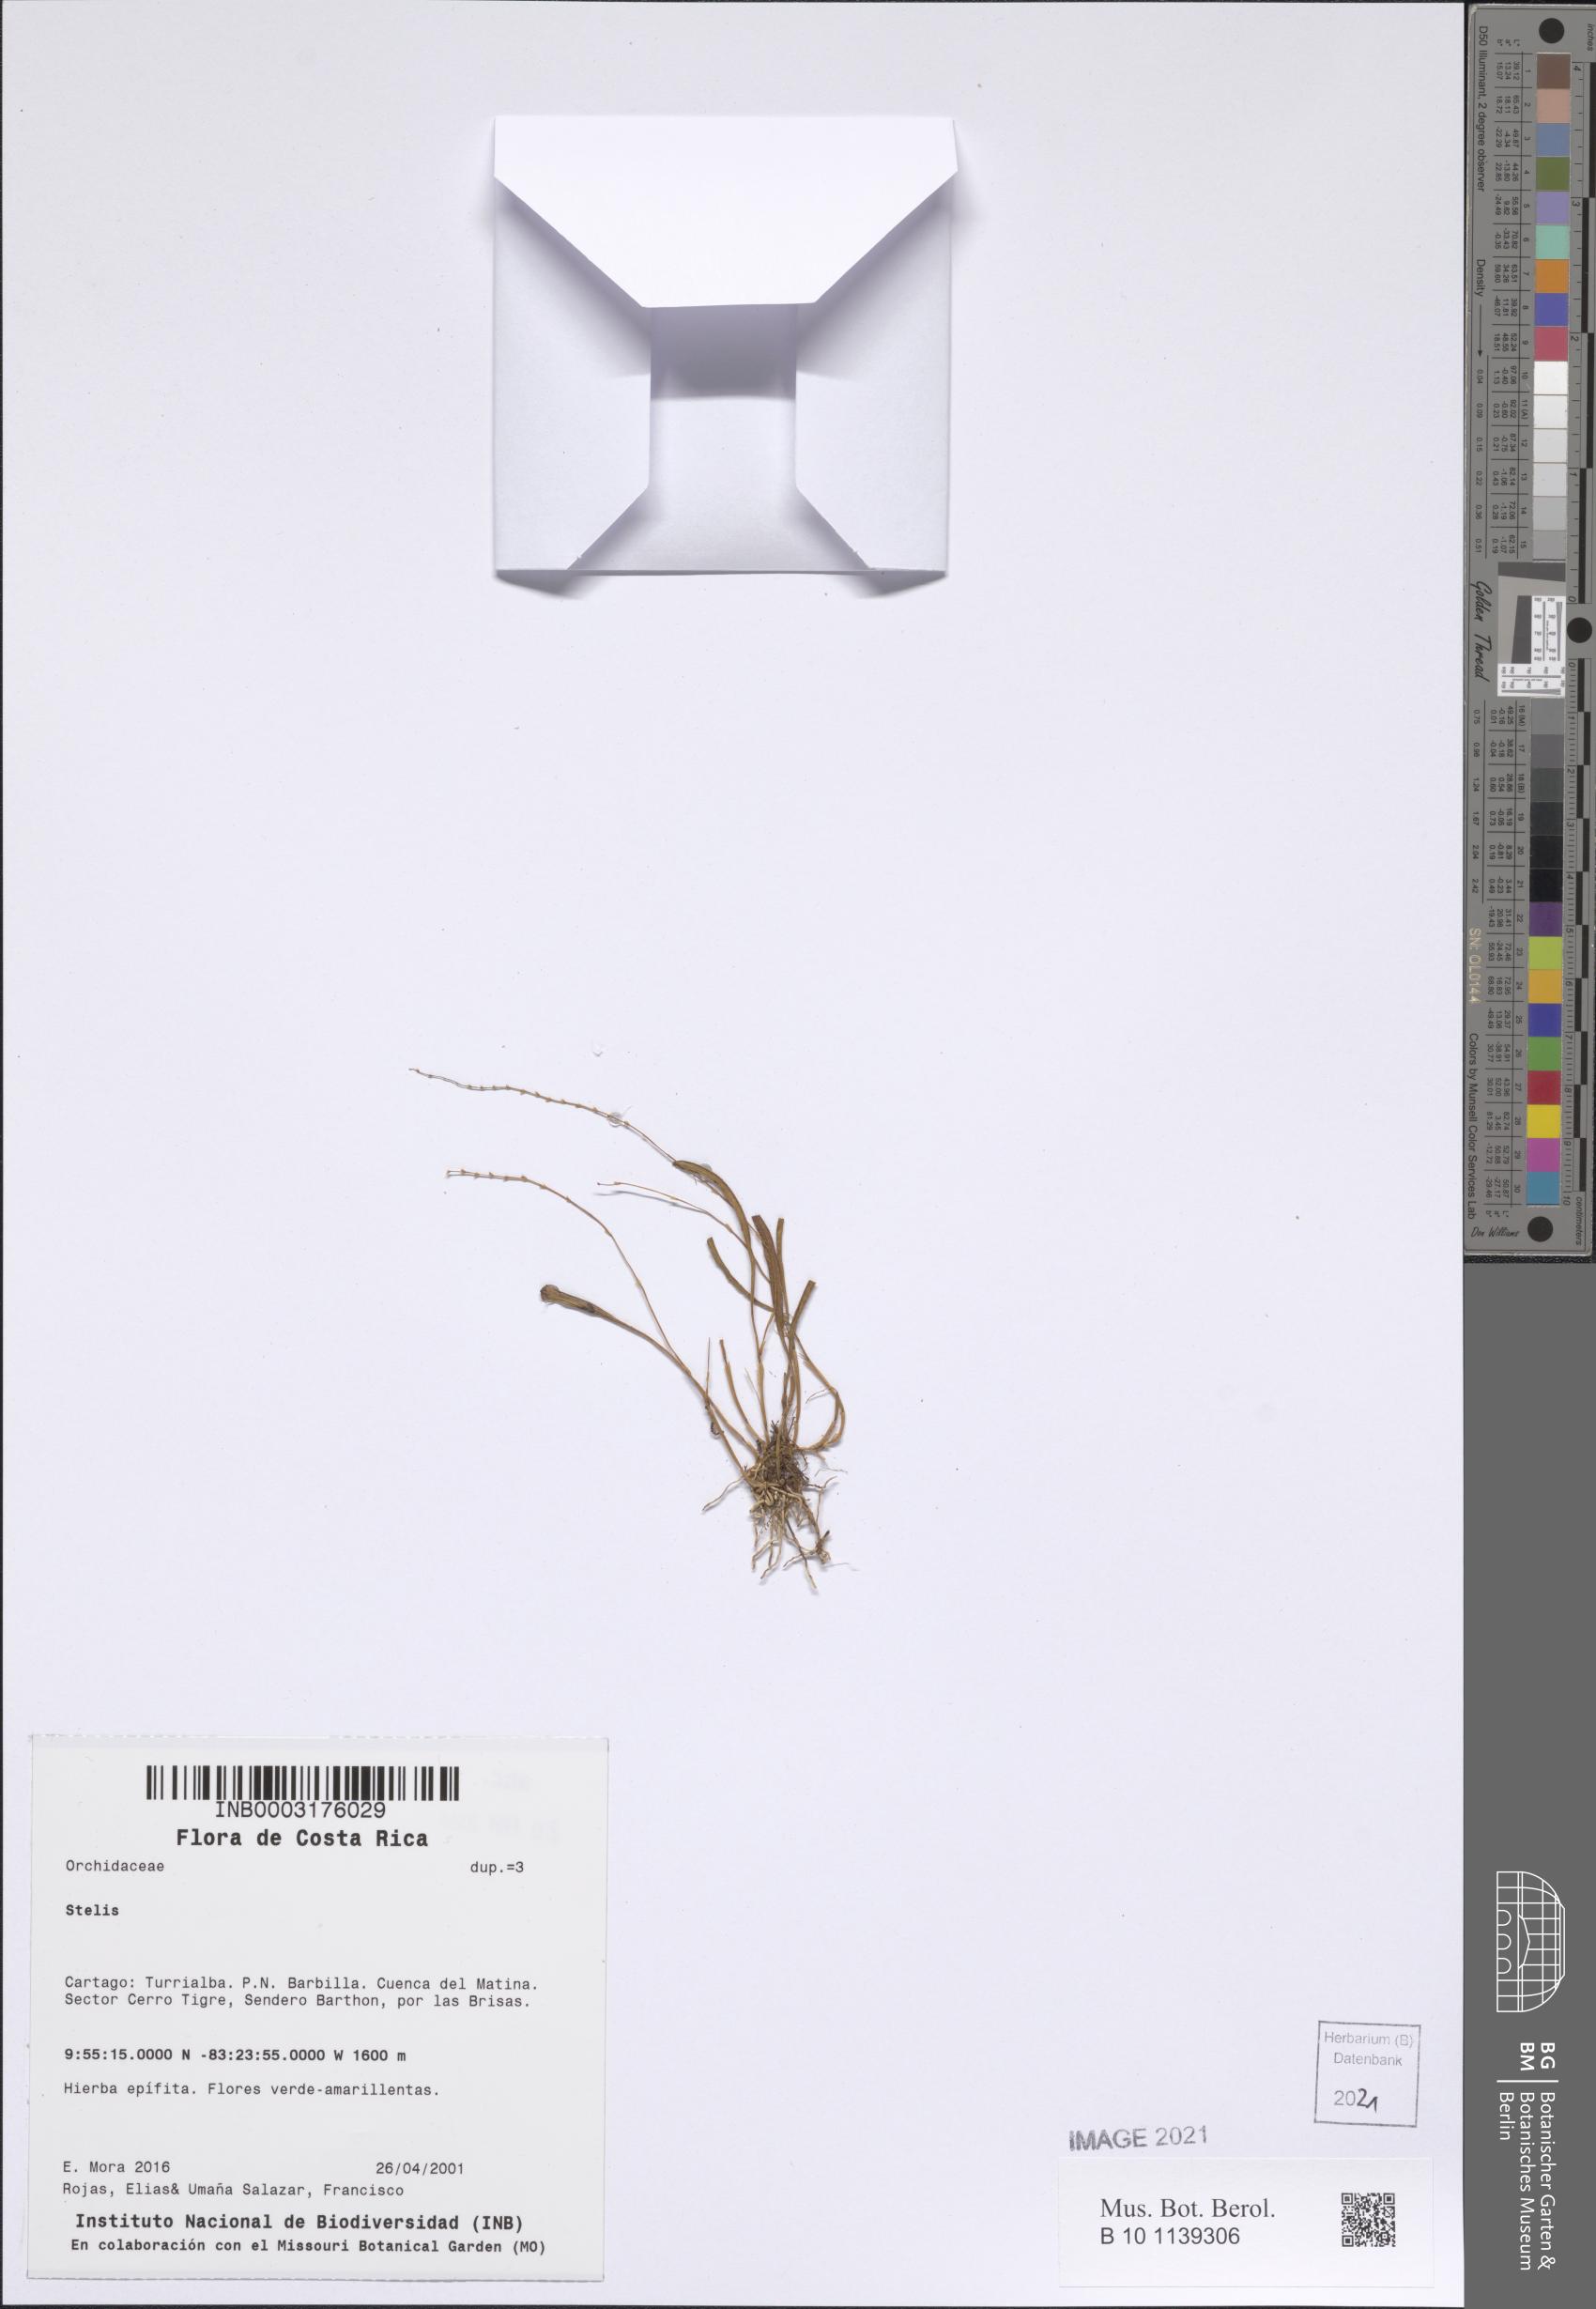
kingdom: Plantae
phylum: Tracheophyta
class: Liliopsida
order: Asparagales
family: Orchidaceae
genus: Stelis
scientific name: Stelis
